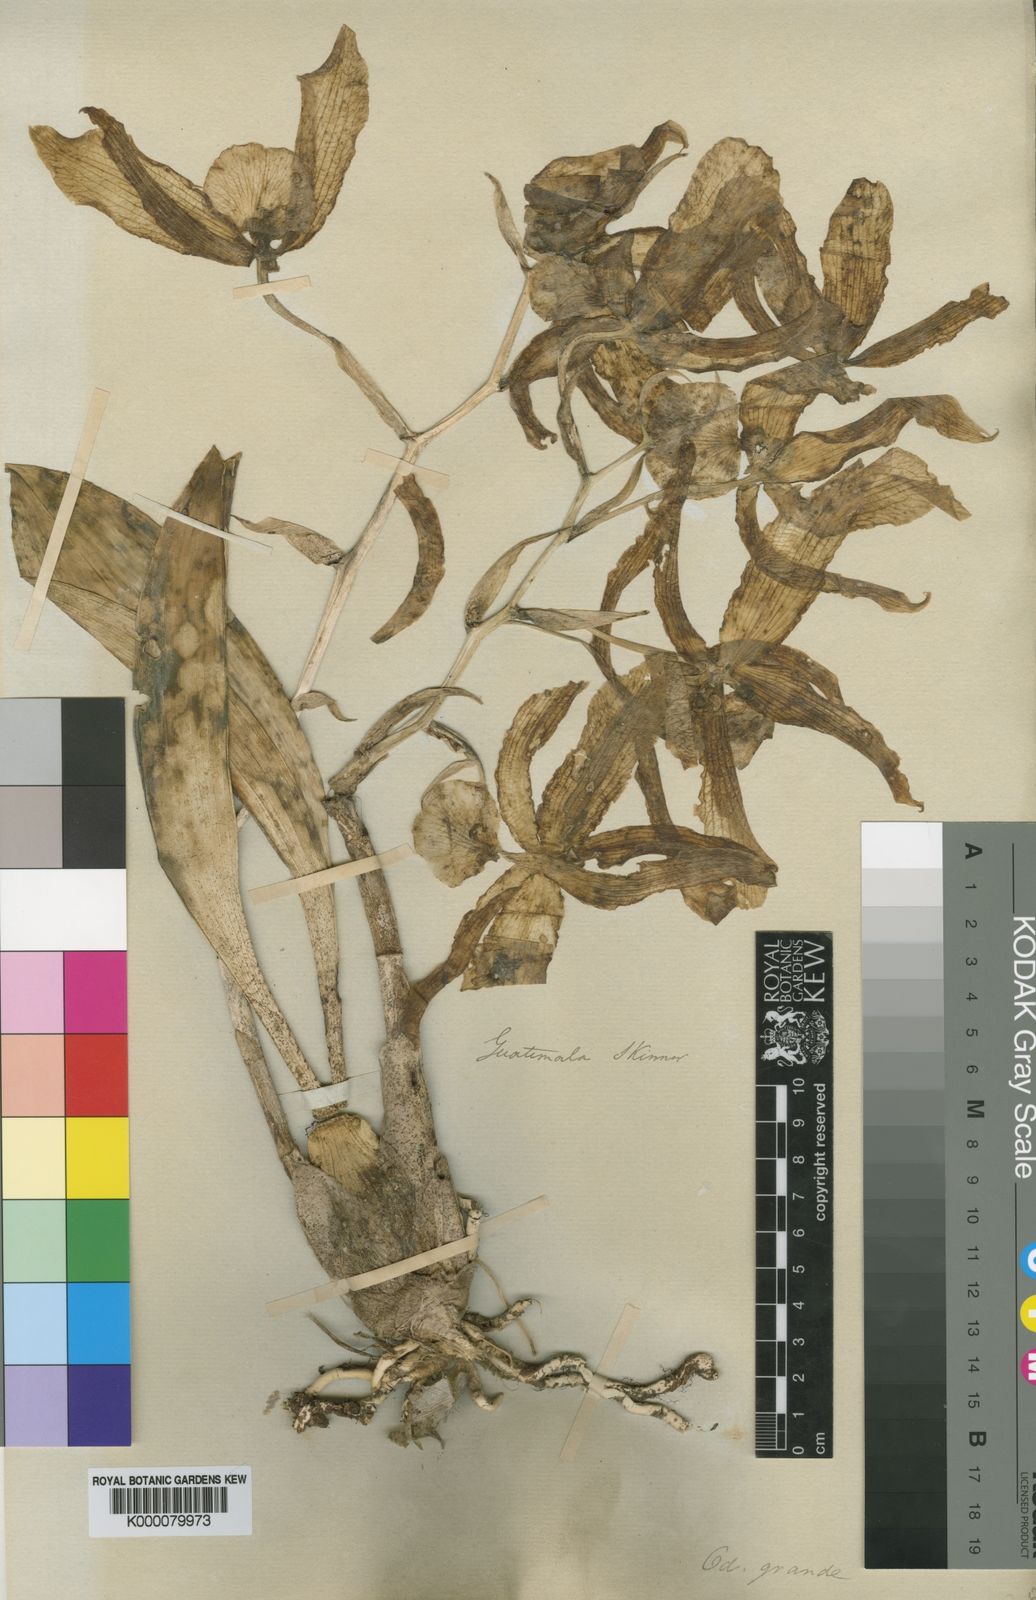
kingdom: Plantae
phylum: Tracheophyta
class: Liliopsida
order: Asparagales
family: Orchidaceae
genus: Rossioglossum
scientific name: Rossioglossum grande
